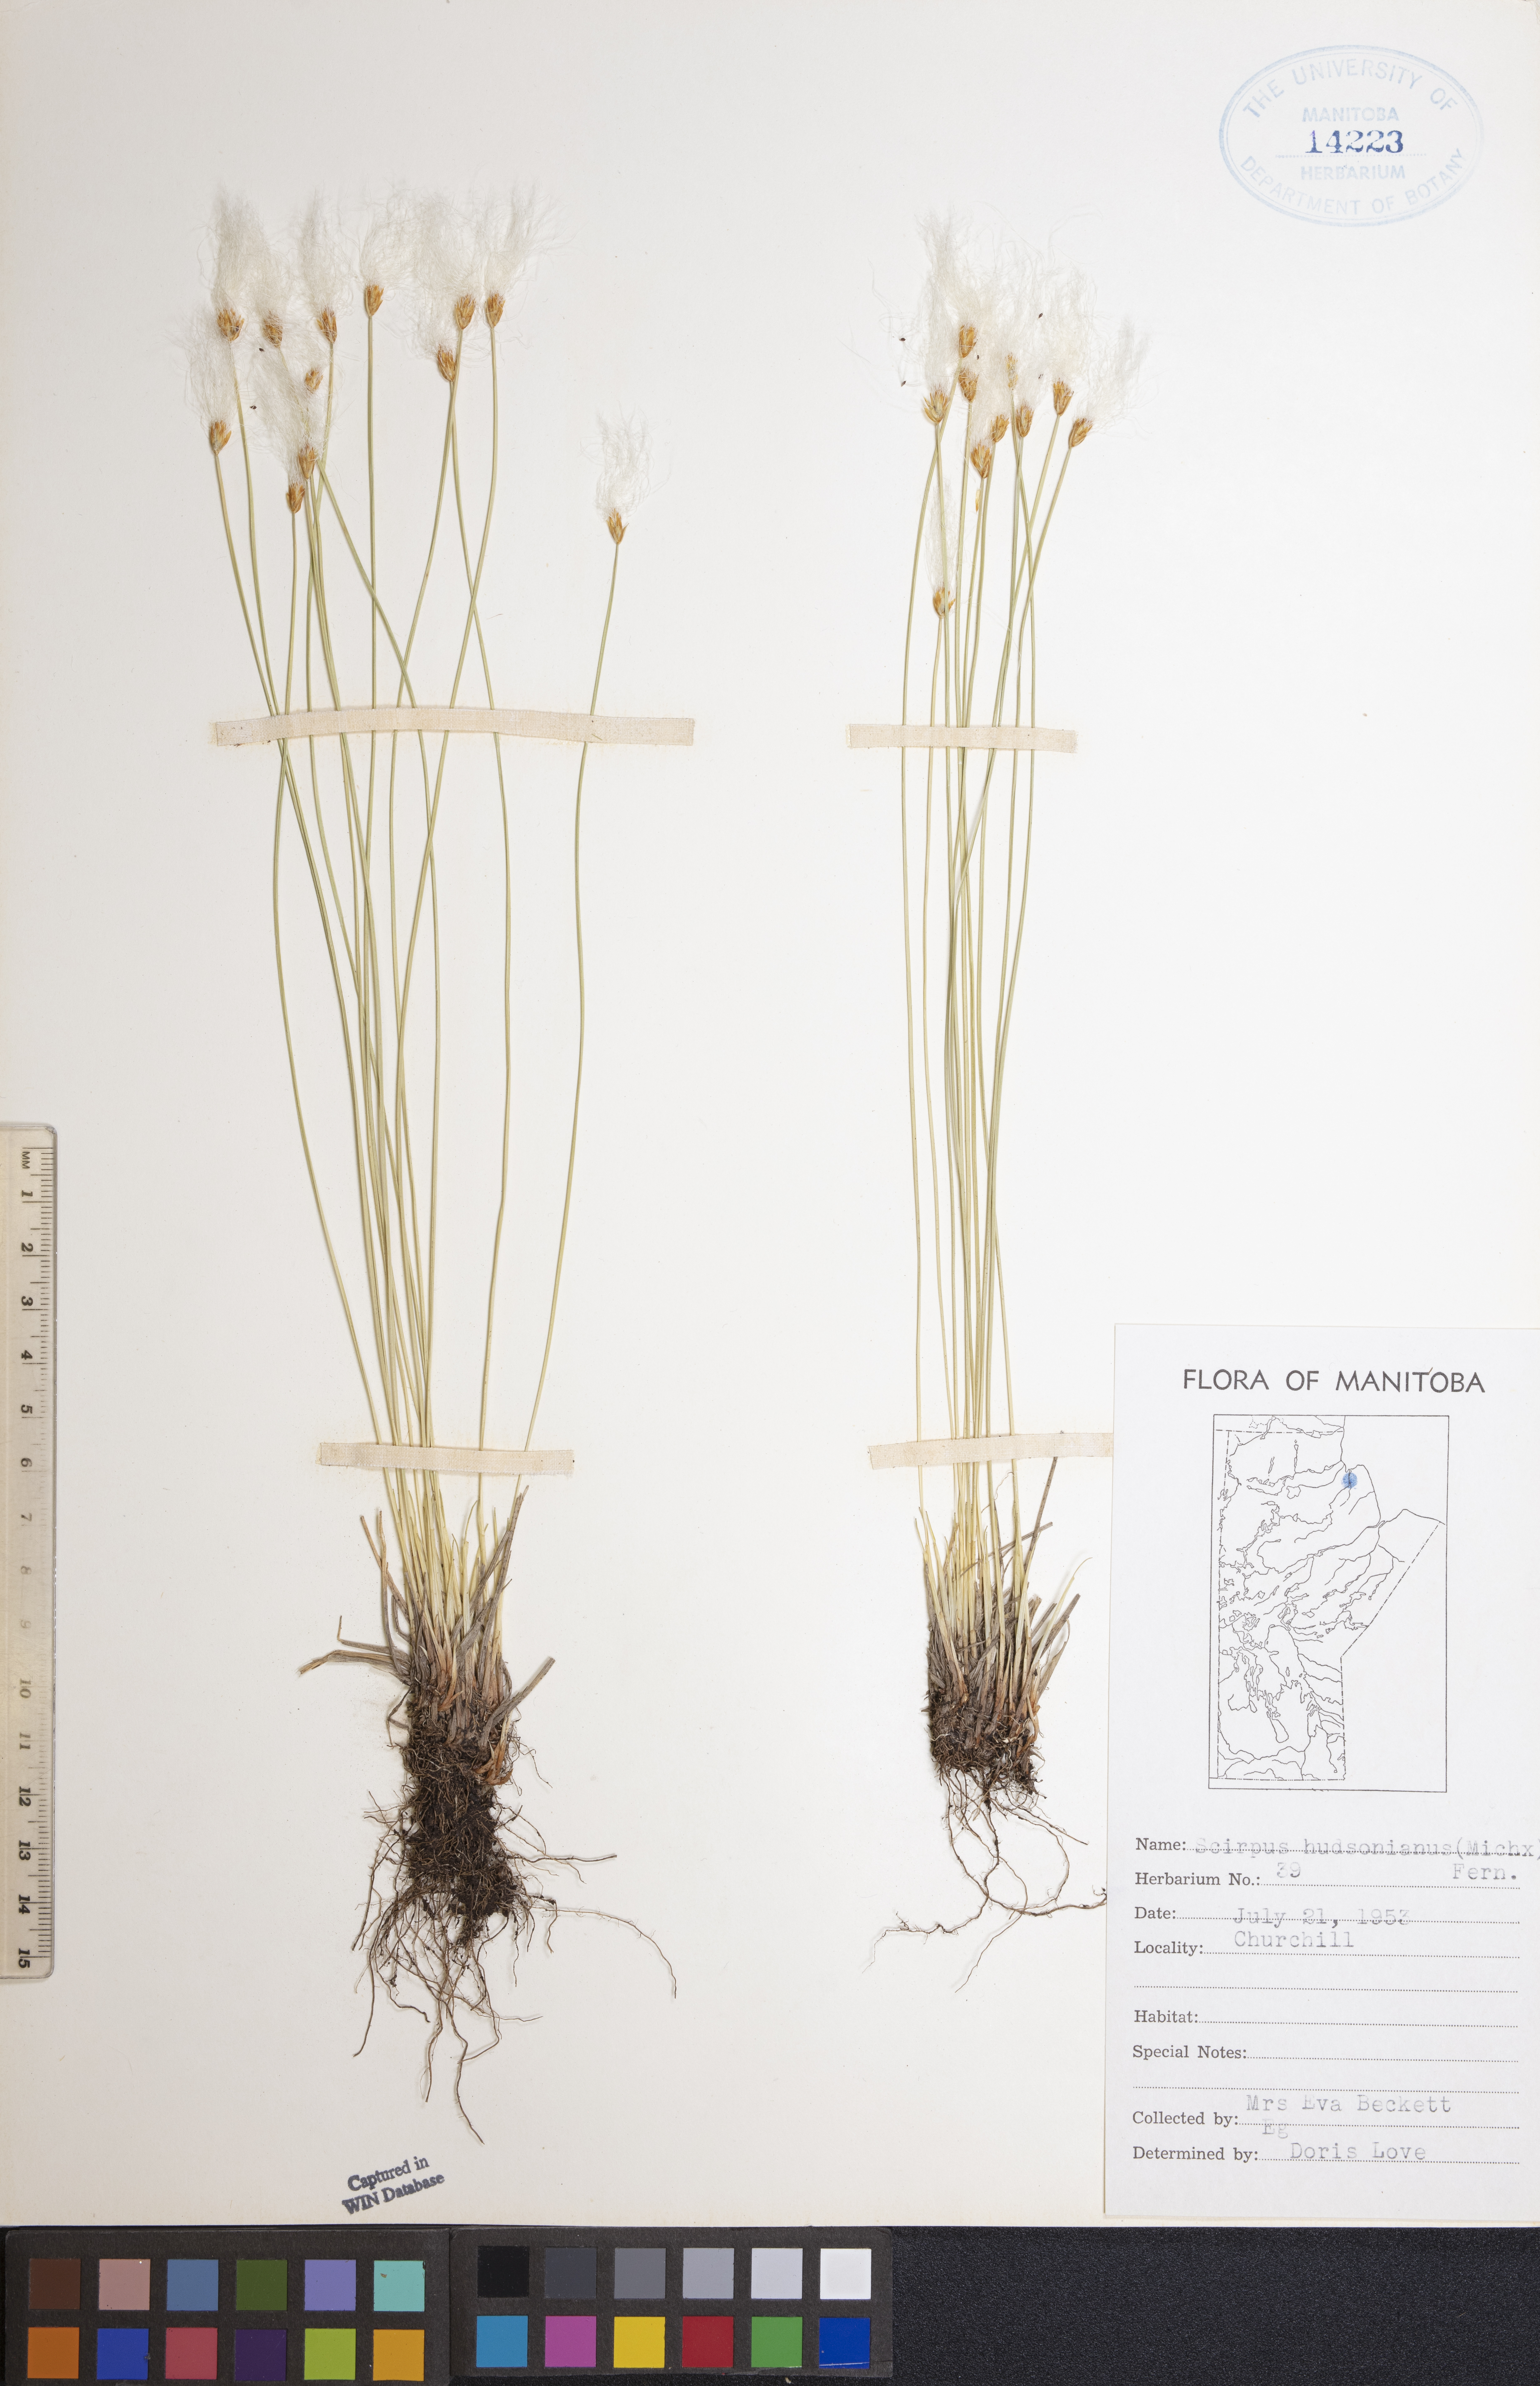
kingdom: Plantae
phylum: Tracheophyta
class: Liliopsida
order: Poales
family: Cyperaceae
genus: Trichophorum
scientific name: Trichophorum alpinum
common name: Alpine bulrush
